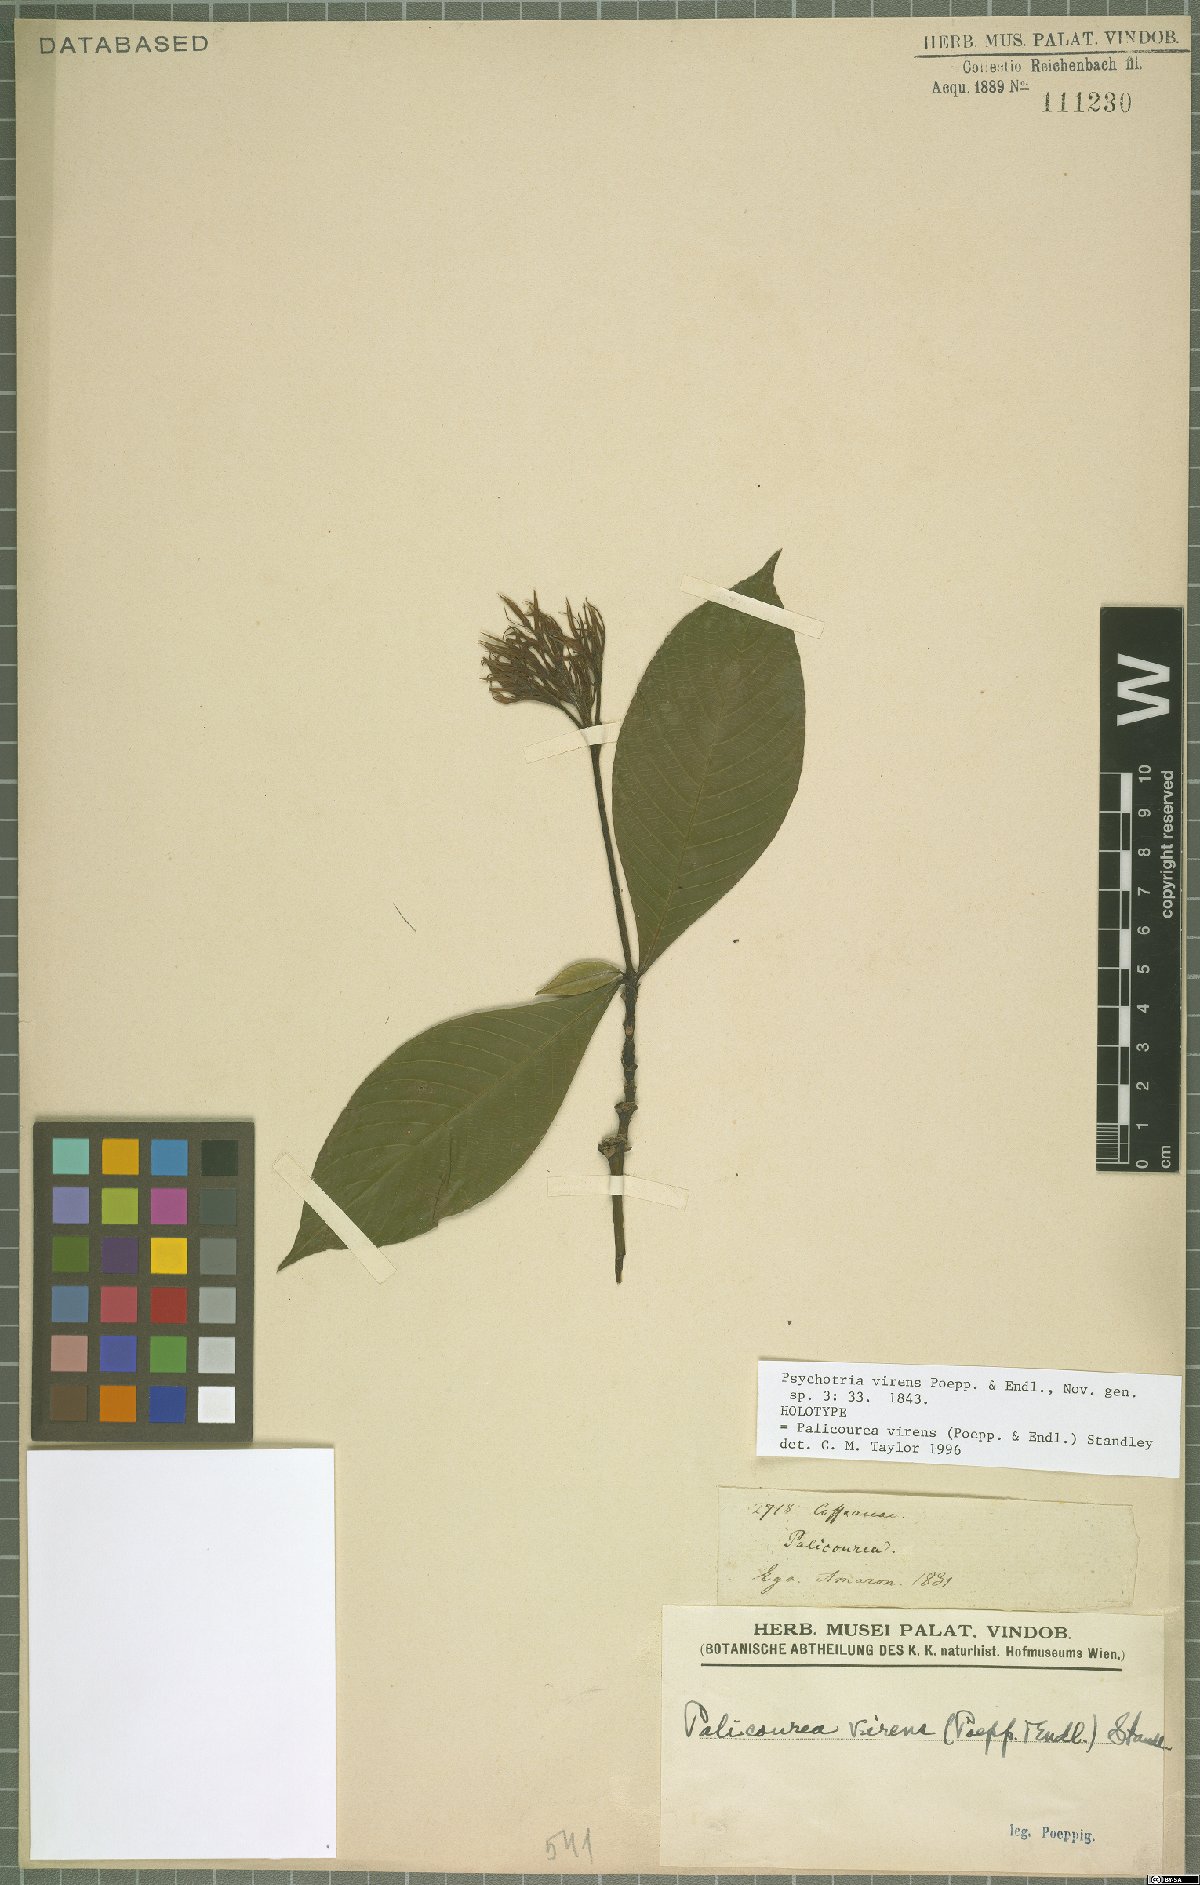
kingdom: Plantae
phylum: Tracheophyta
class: Magnoliopsida
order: Gentianales
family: Rubiaceae
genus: Palicourea
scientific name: Palicourea virens
